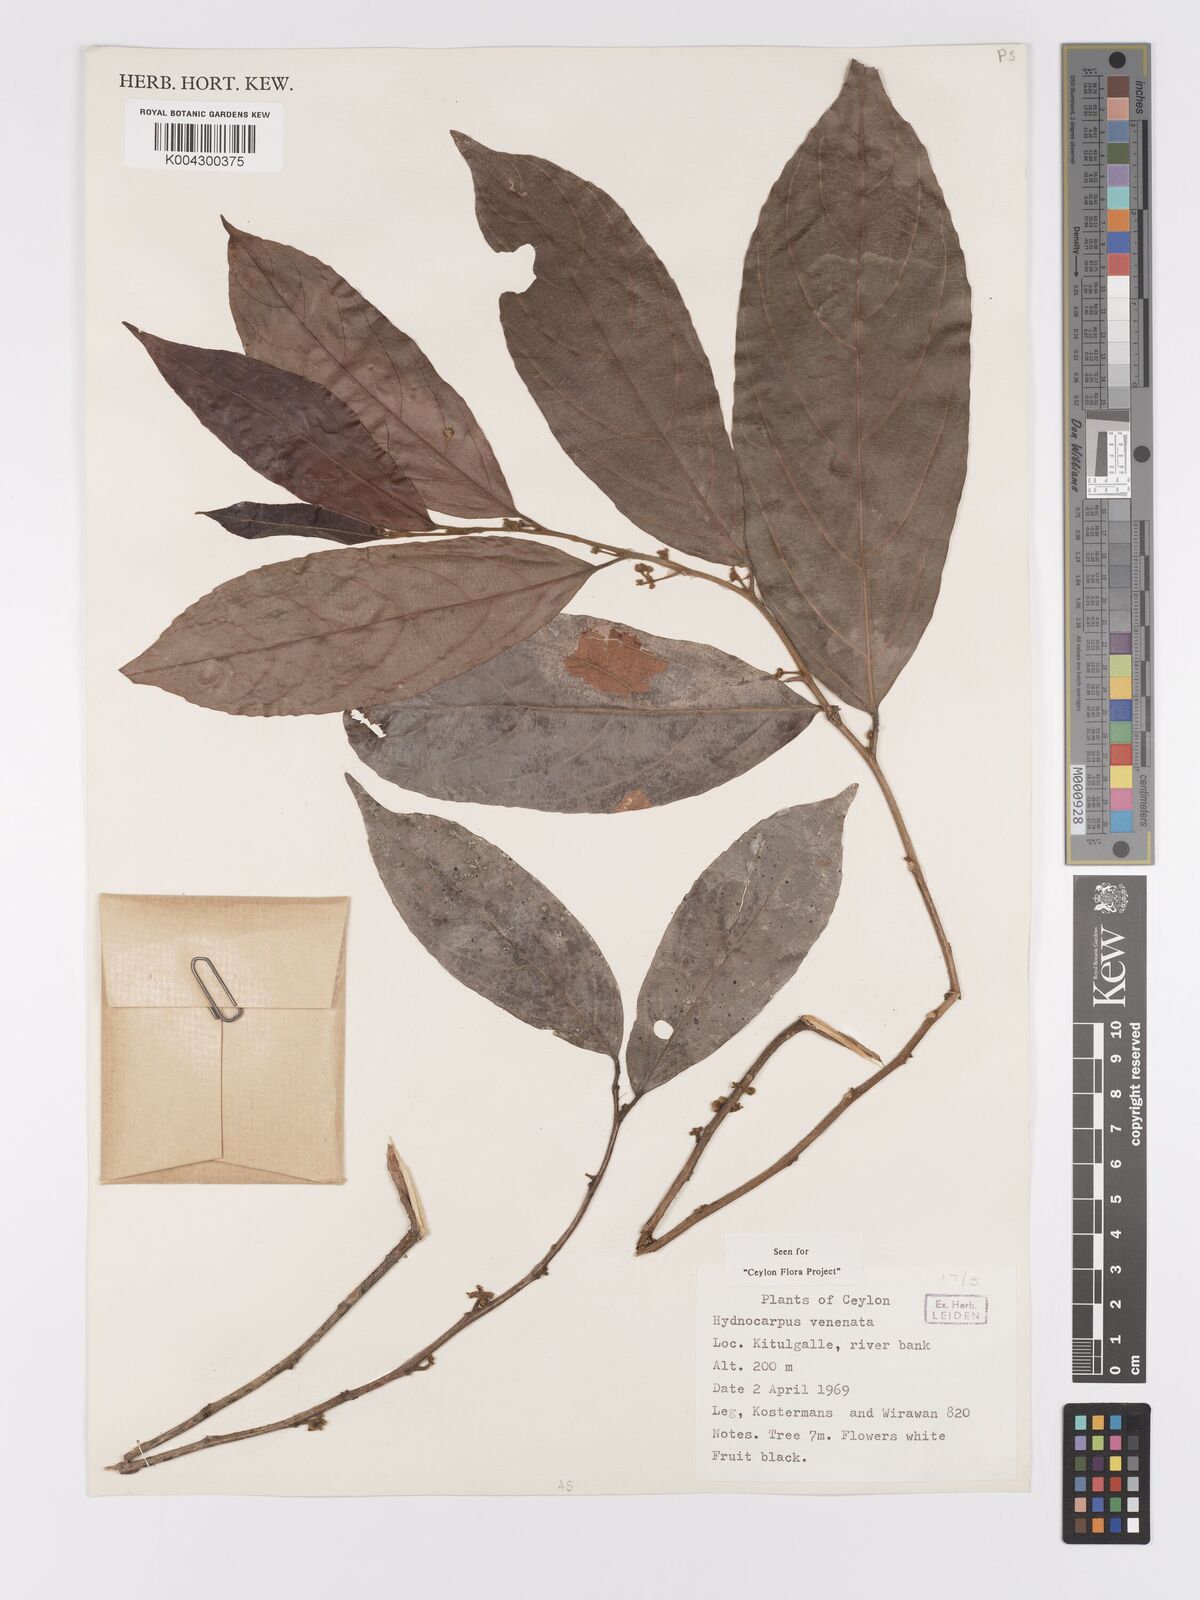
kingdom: Plantae
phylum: Tracheophyta
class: Magnoliopsida
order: Malpighiales
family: Achariaceae
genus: Hydnocarpus
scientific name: Hydnocarpus venenatus
